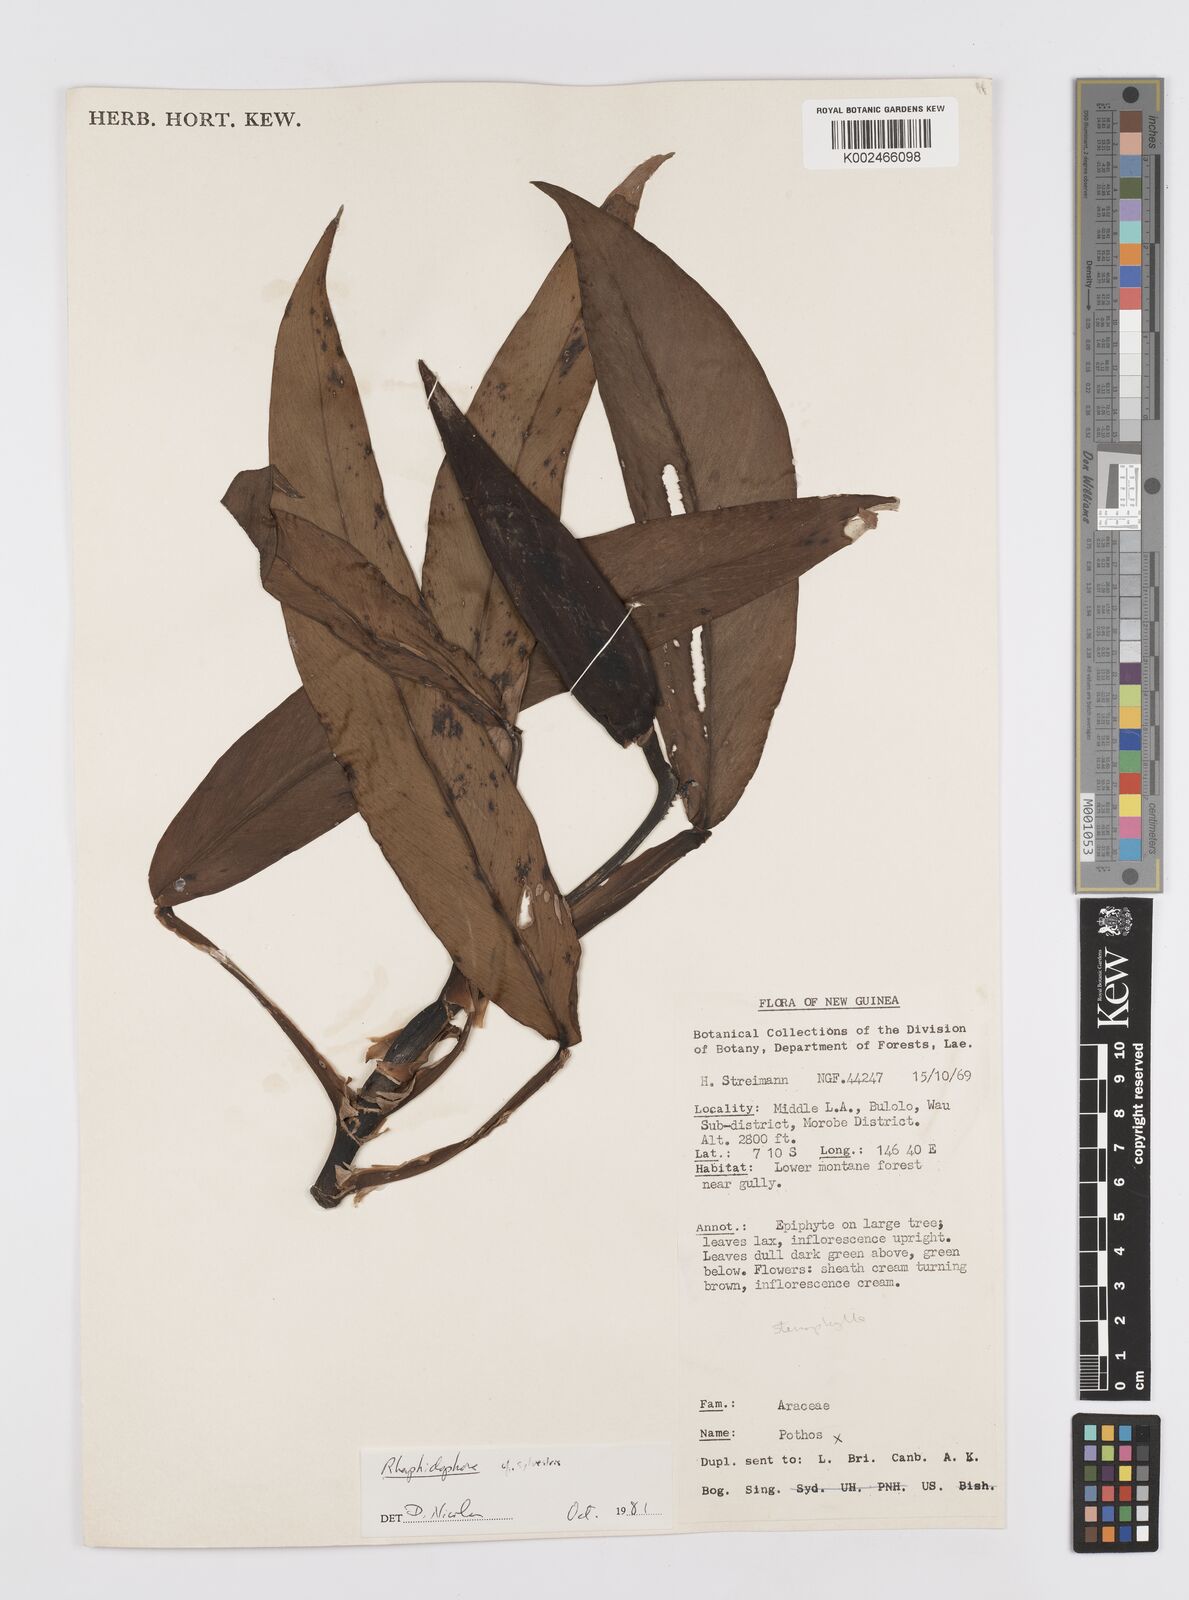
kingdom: Plantae
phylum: Tracheophyta
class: Liliopsida
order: Alismatales
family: Araceae
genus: Rhaphidophora
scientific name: Rhaphidophora stenophylla
